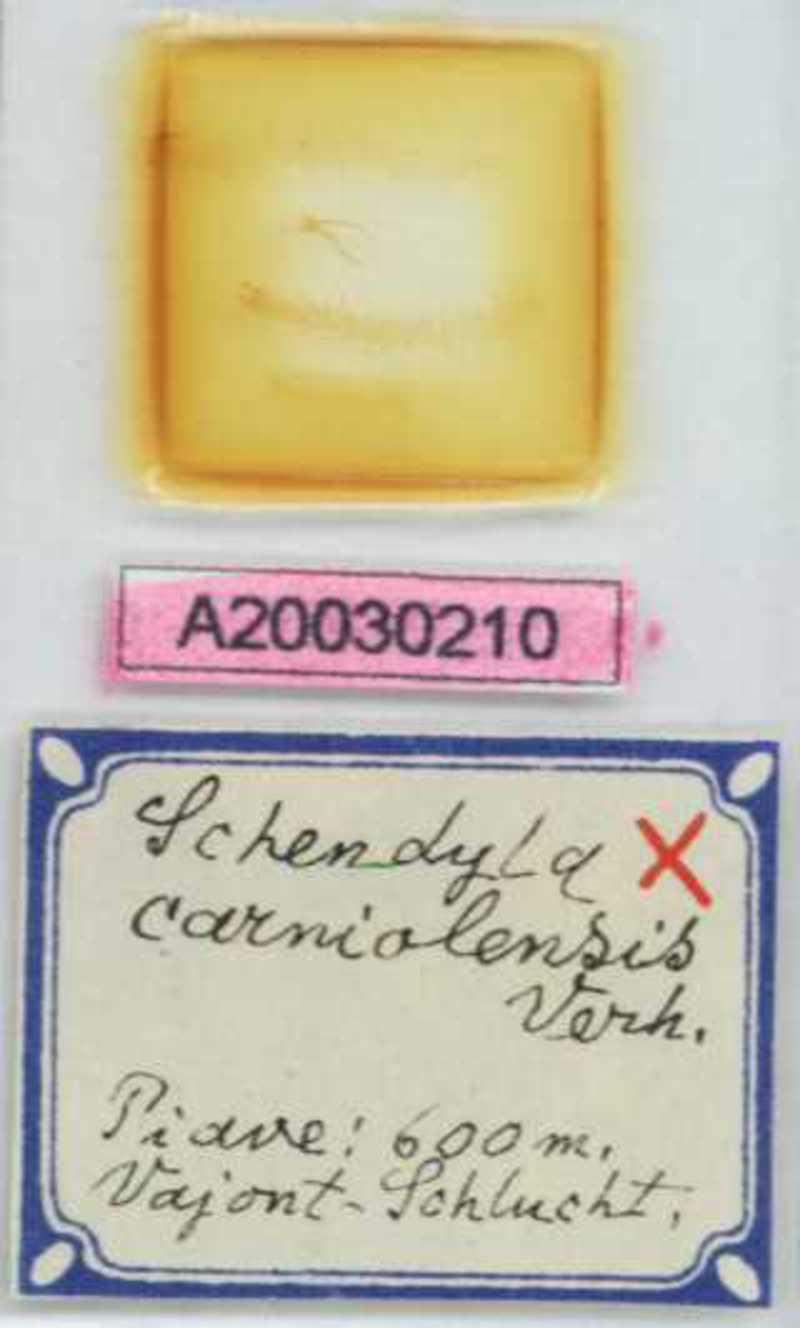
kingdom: Animalia
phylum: Arthropoda
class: Chilopoda
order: Geophilomorpha
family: Schendylidae
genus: Schendyla
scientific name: Schendyla carniolensis
